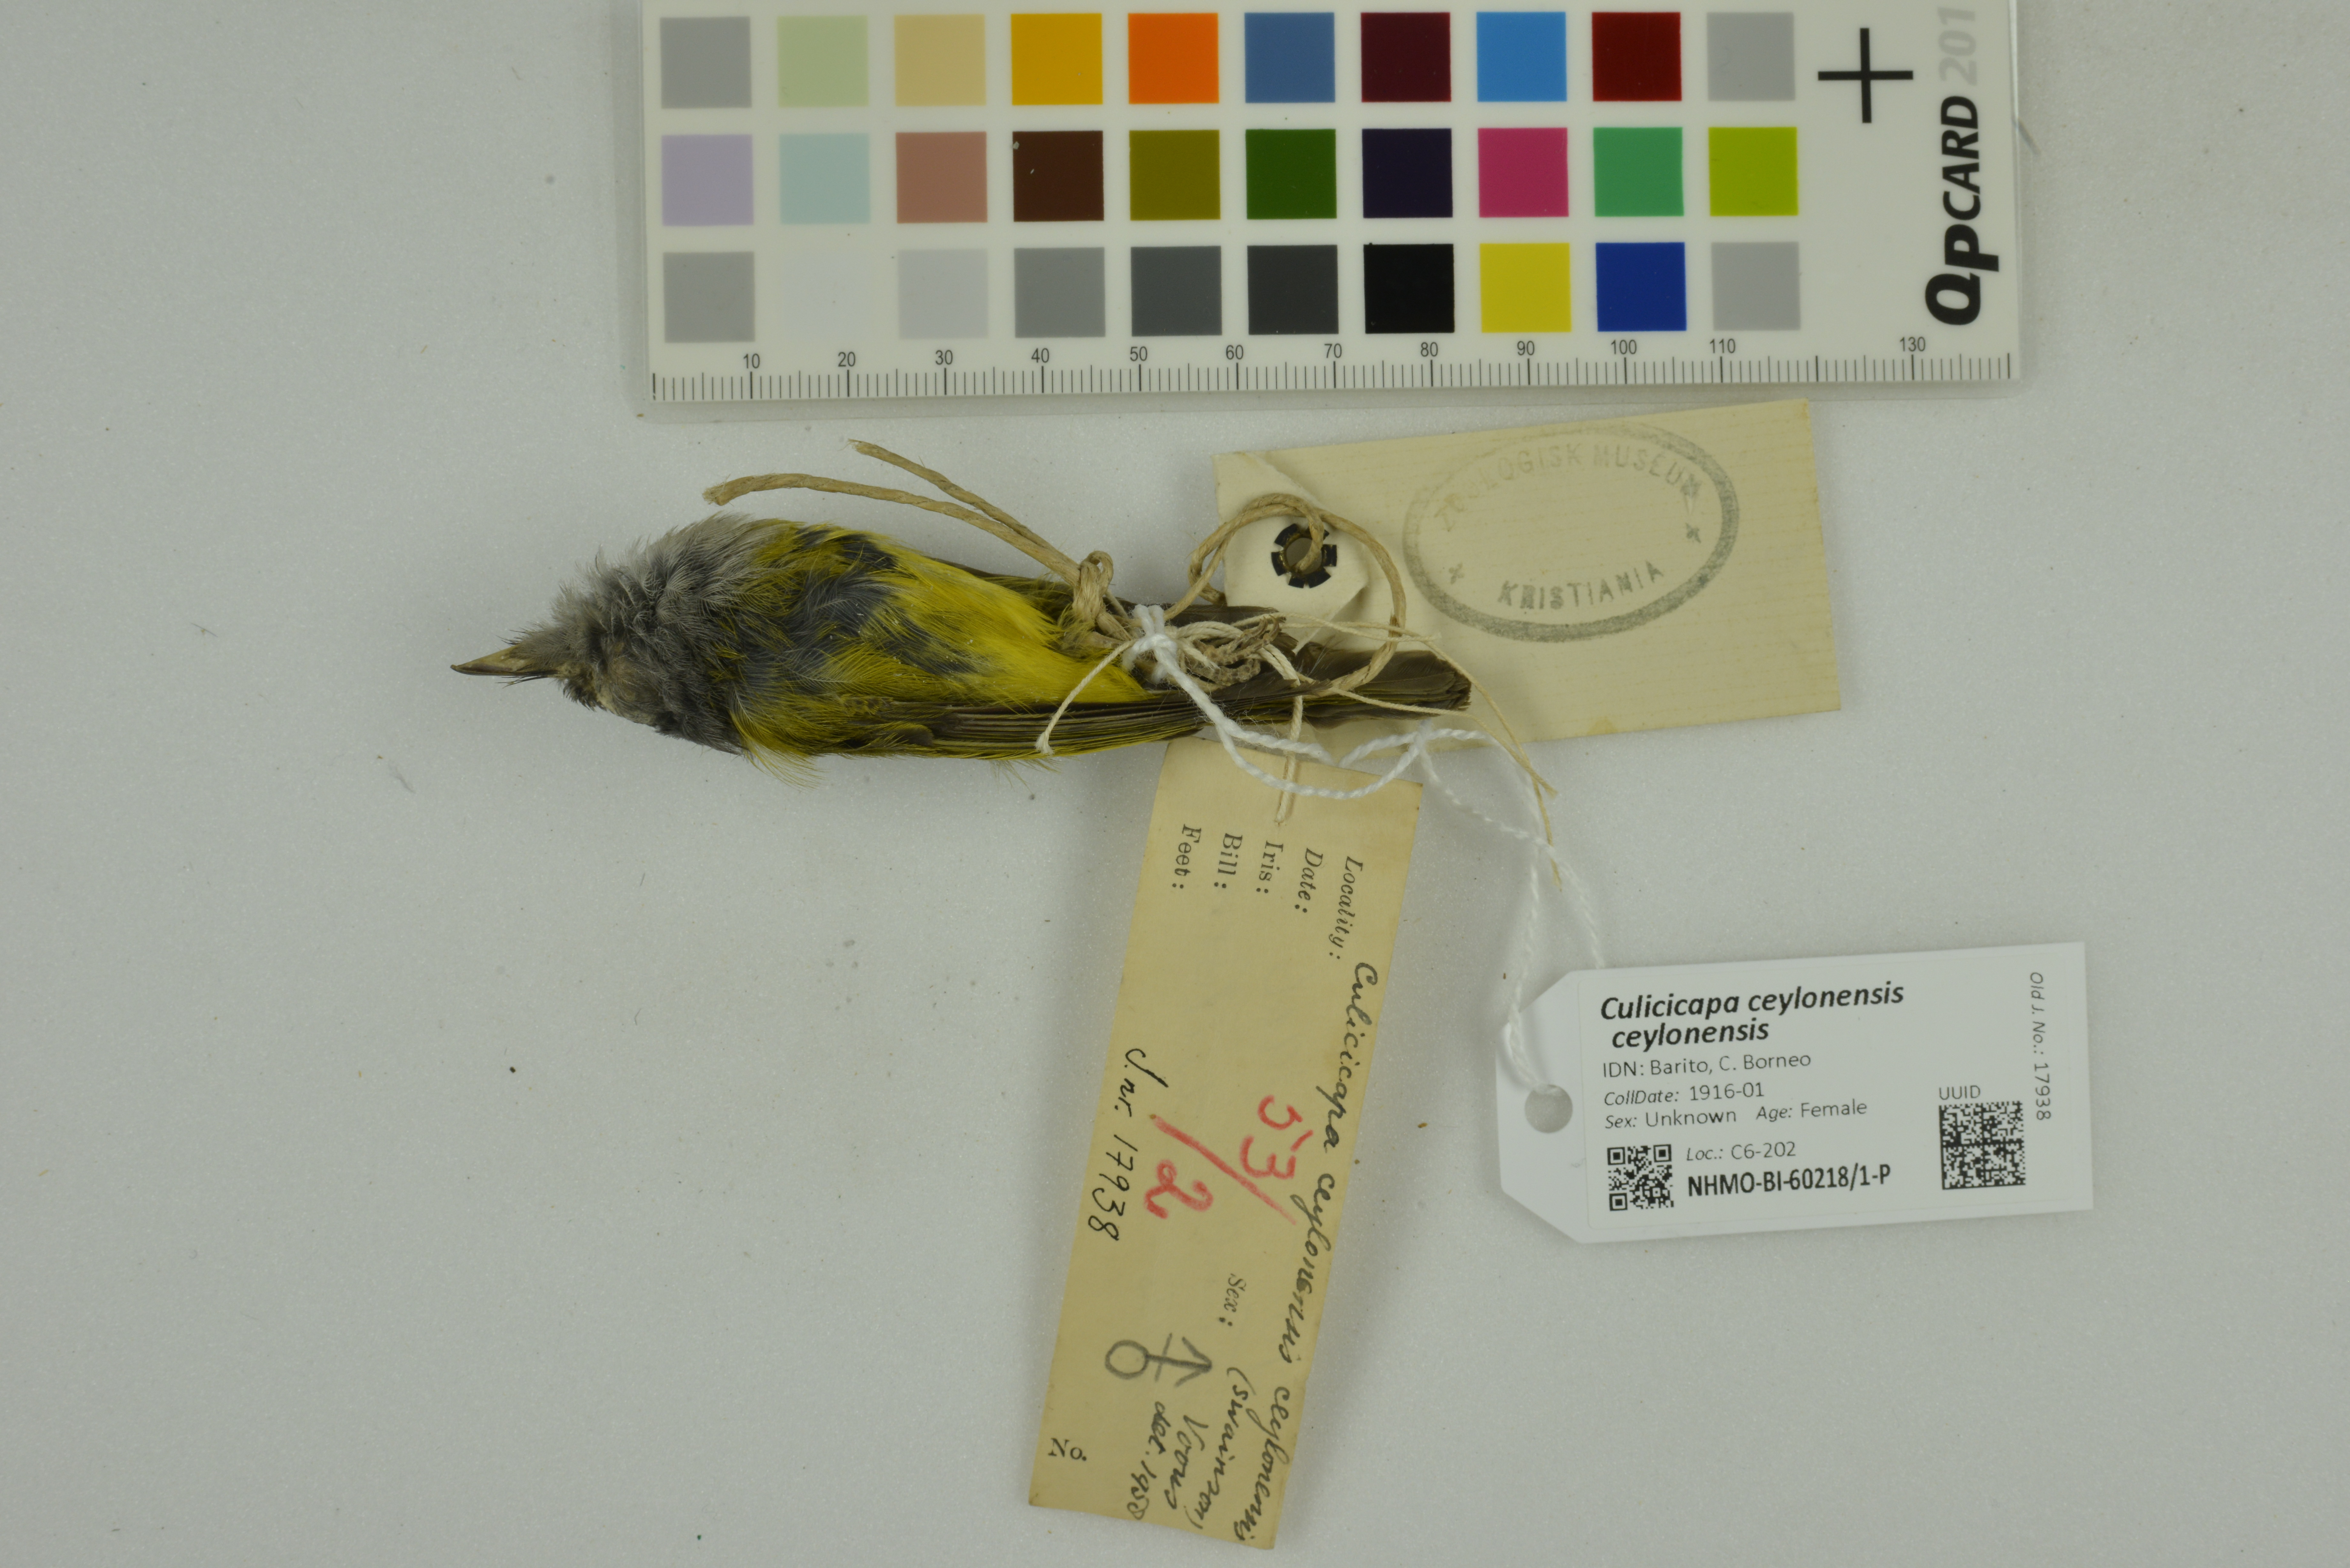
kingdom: Animalia
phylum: Chordata
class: Aves
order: Passeriformes
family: Stenostiridae
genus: Culicicapa
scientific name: Culicicapa ceylonensis
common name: Grey-headed canary-flycatcher
